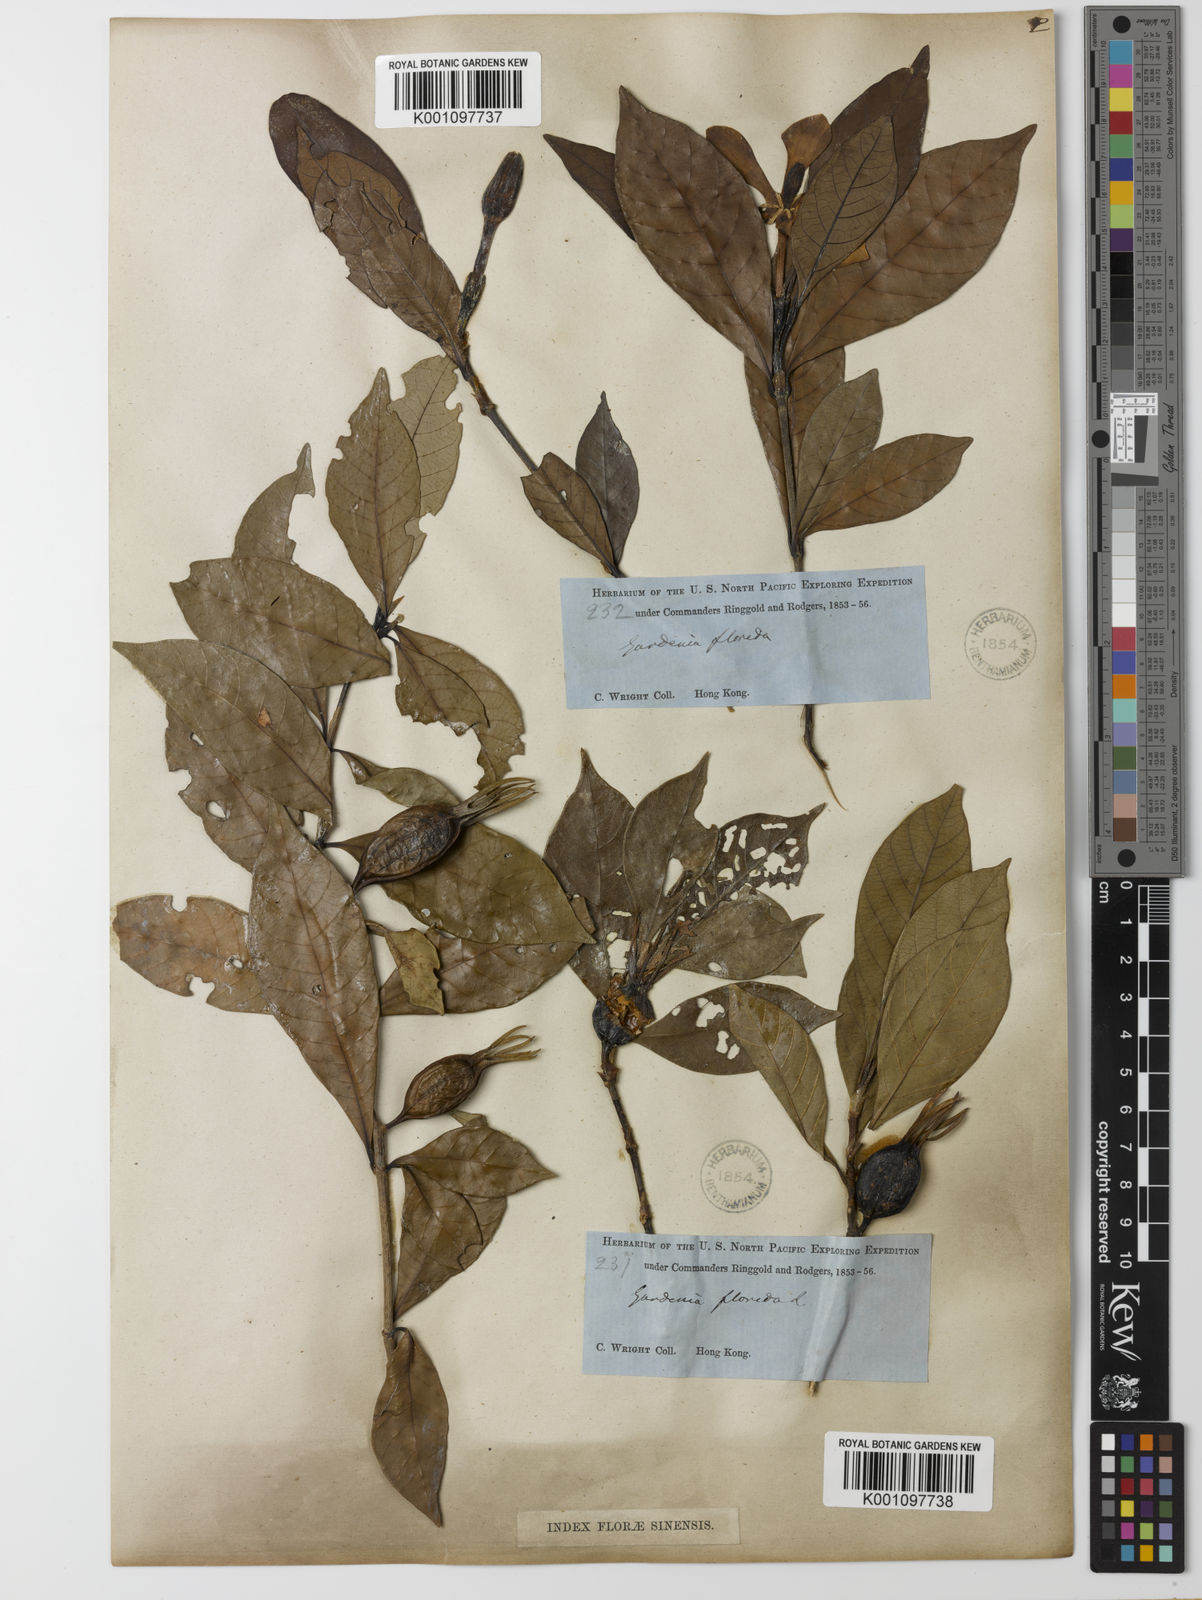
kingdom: Plantae
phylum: Tracheophyta
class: Magnoliopsida
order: Gentianales
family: Rubiaceae
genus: Gardenia
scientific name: Gardenia jasminoides
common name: Cape-jasmine
